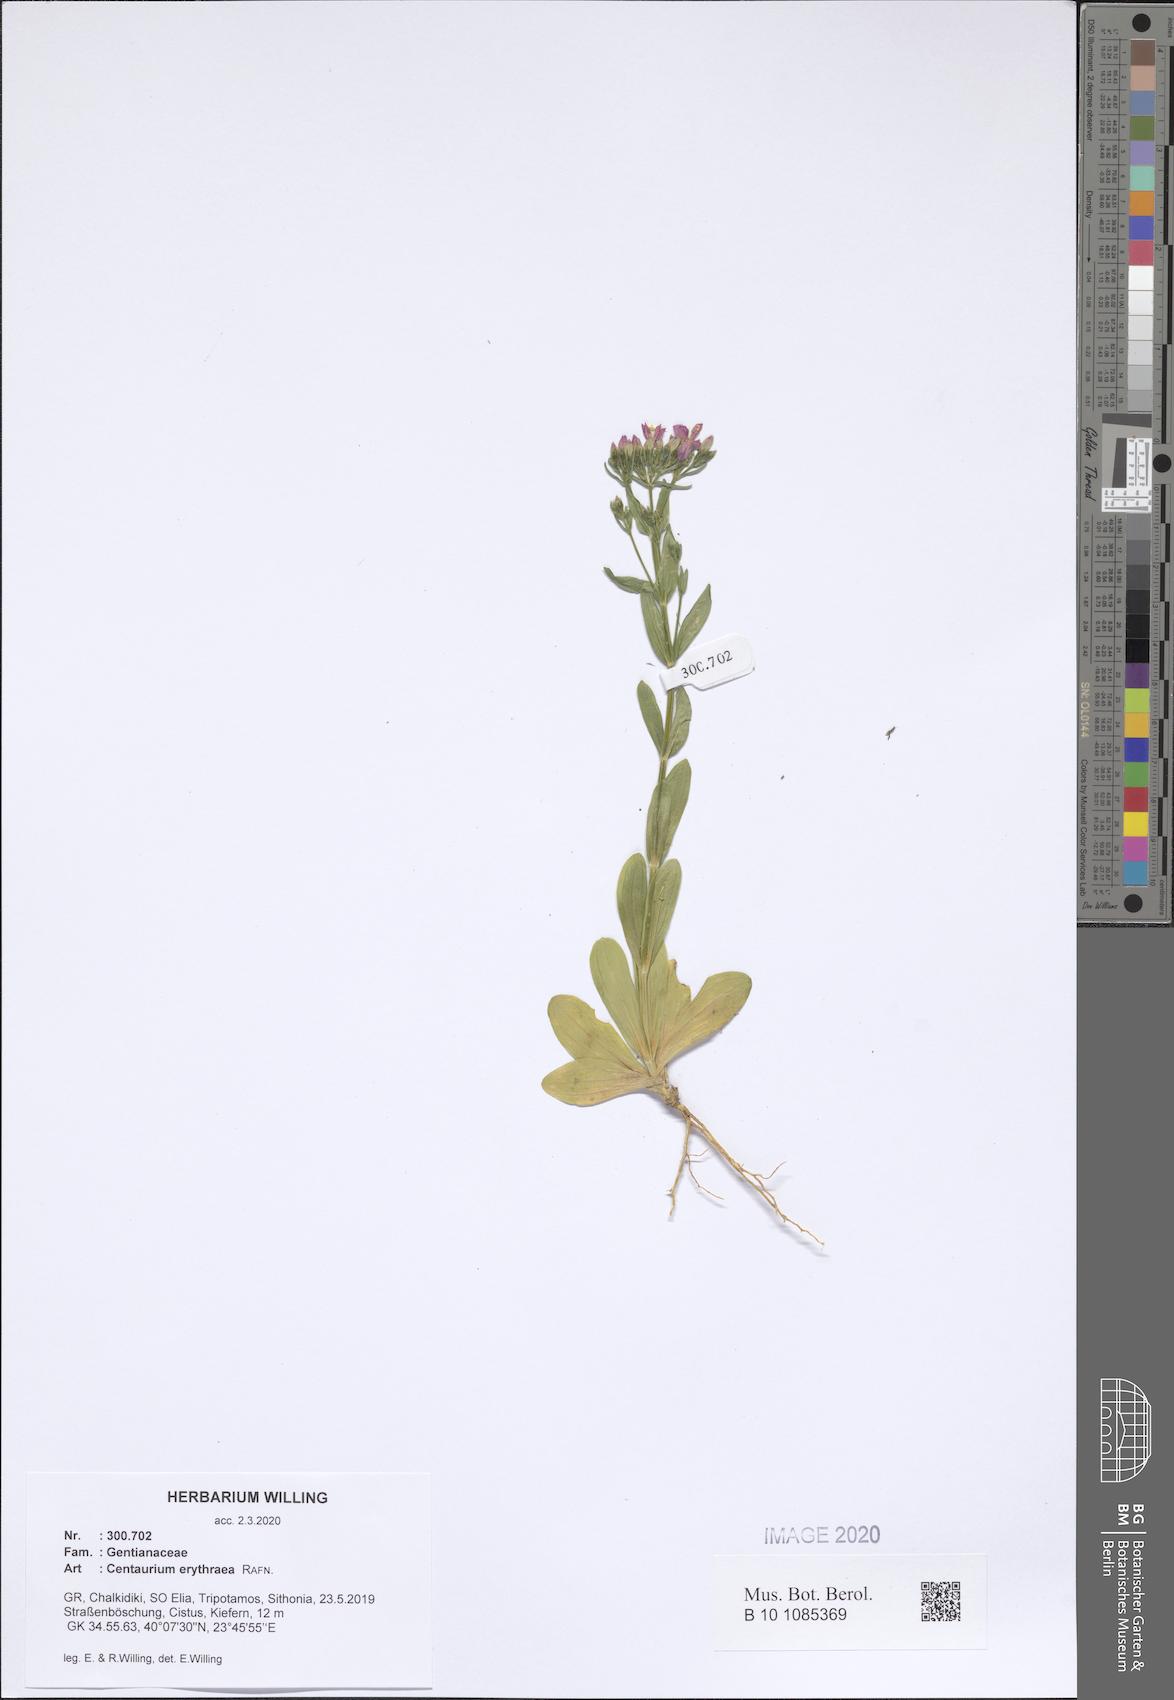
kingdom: Plantae
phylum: Tracheophyta
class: Magnoliopsida
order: Gentianales
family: Gentianaceae
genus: Centaurium
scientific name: Centaurium erythraea
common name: Common centaury
